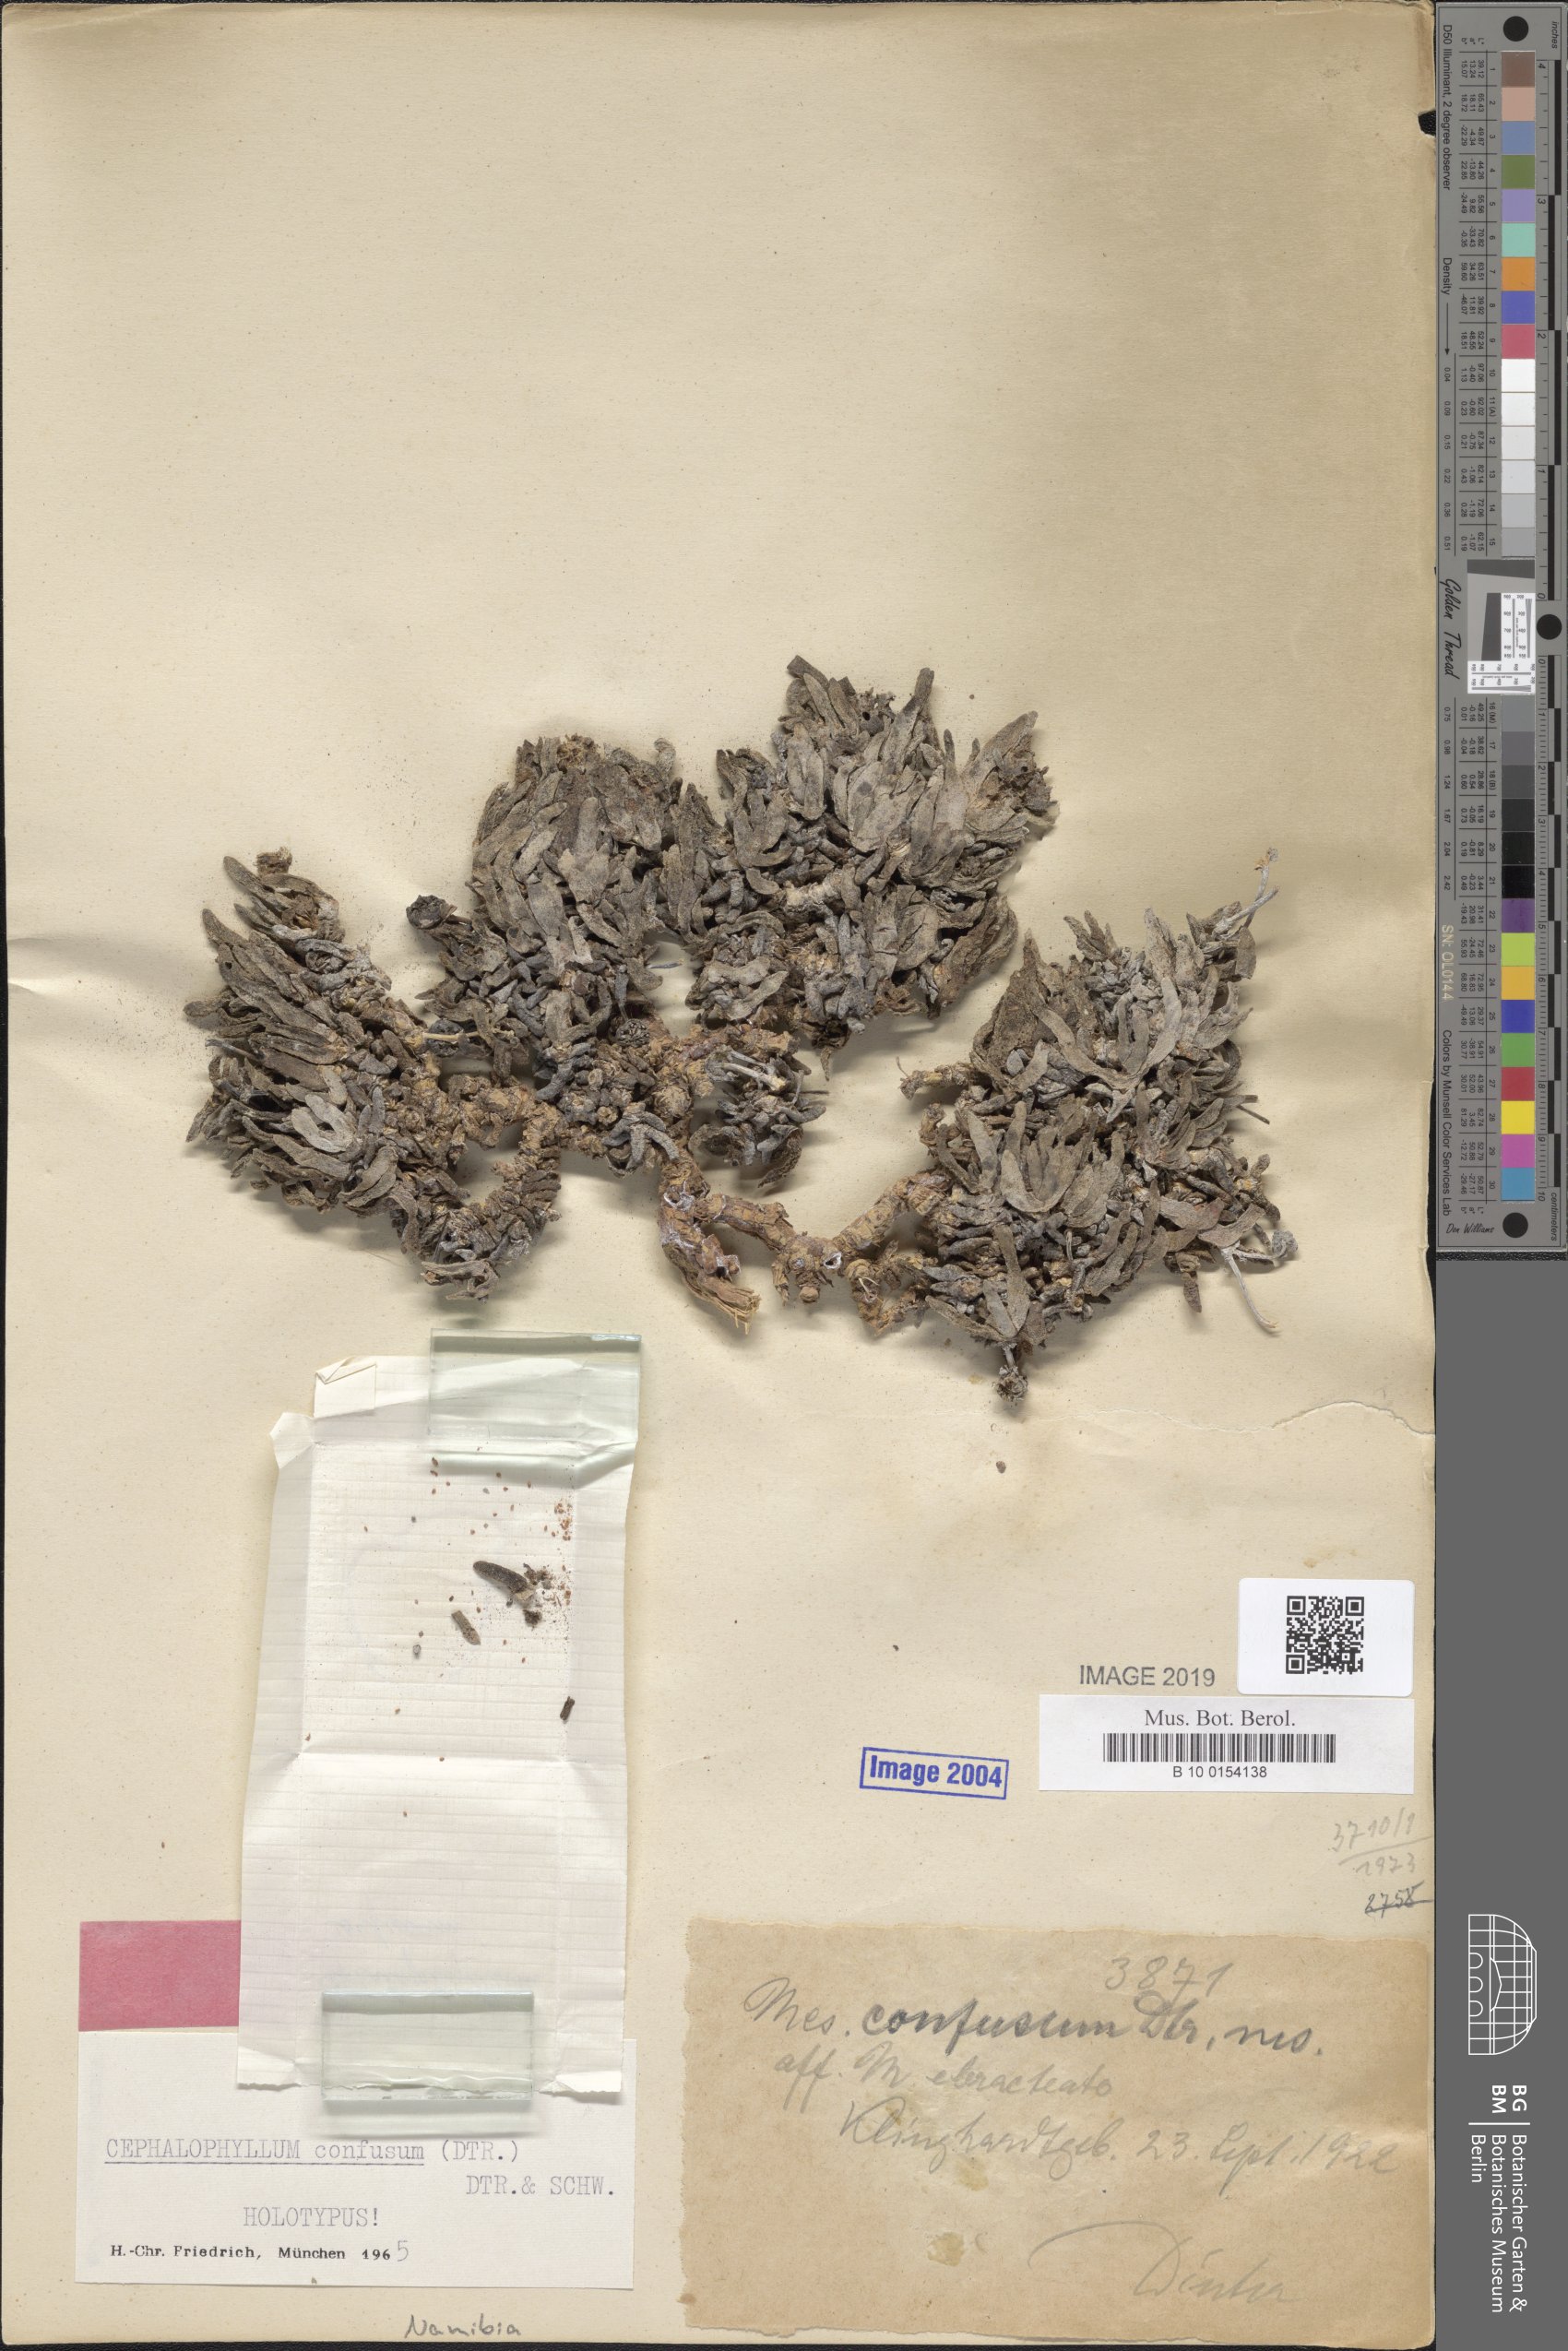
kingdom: Plantae
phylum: Tracheophyta
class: Magnoliopsida
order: Caryophyllales
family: Aizoaceae
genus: Cephalophyllum
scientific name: Cephalophyllum confusum
